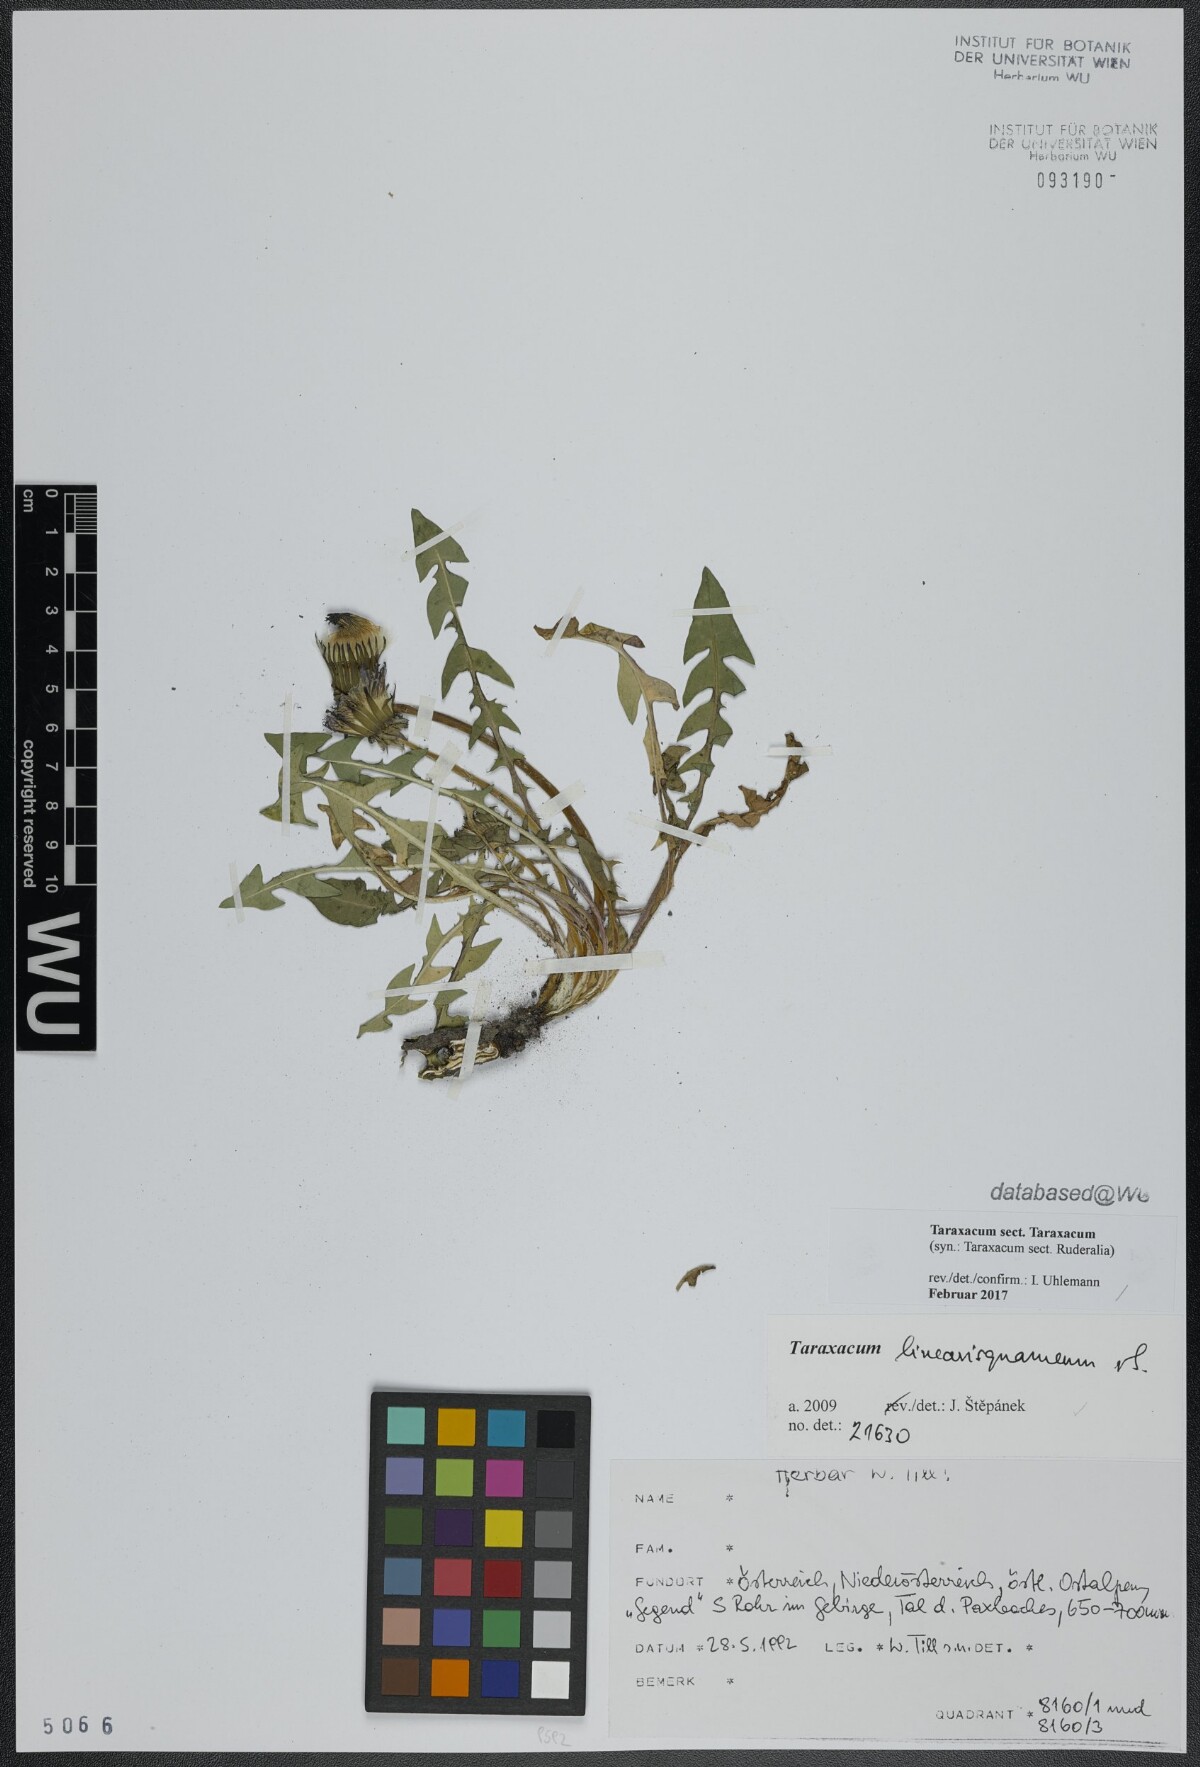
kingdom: Plantae
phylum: Tracheophyta
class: Magnoliopsida
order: Asterales
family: Asteraceae
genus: Taraxacum
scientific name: Taraxacum
